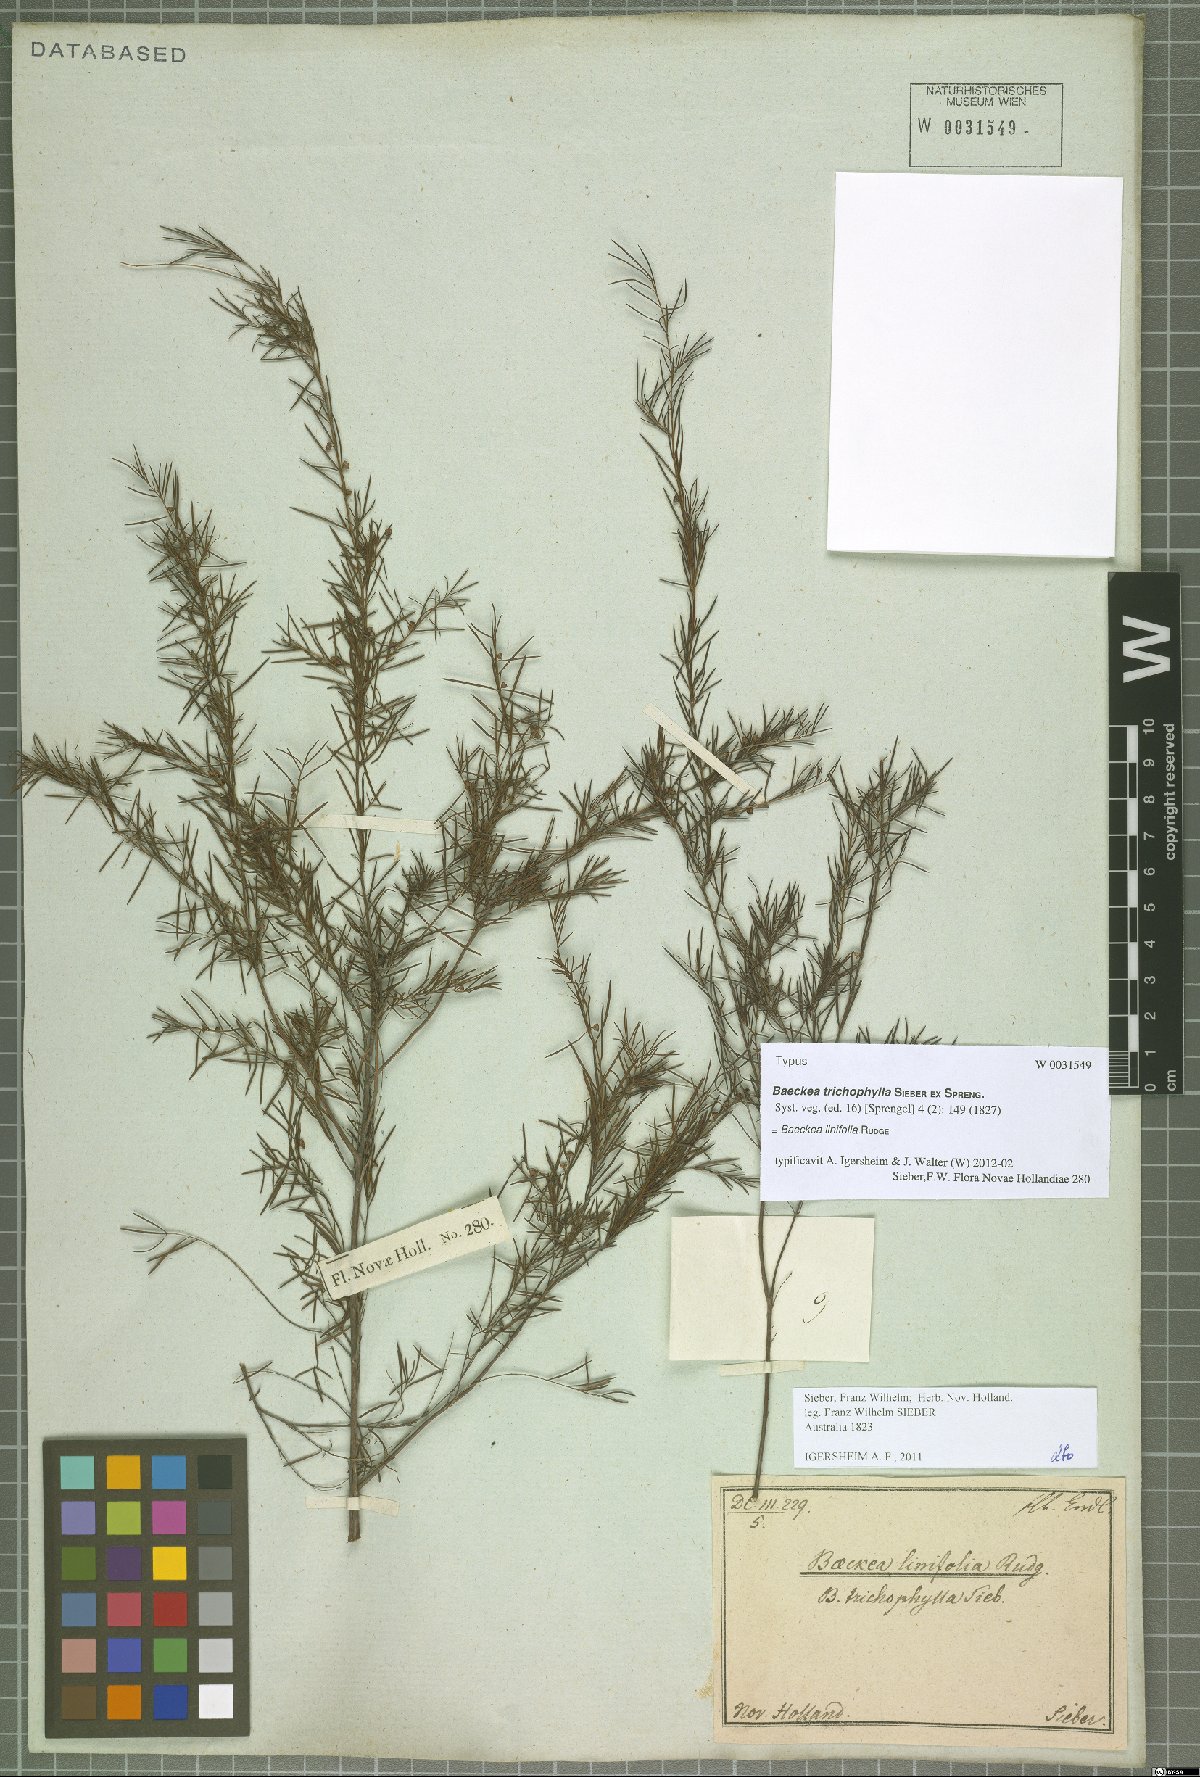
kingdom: Plantae
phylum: Tracheophyta
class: Magnoliopsida
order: Myrtales
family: Myrtaceae
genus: Baeckea
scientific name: Baeckea linifolia
